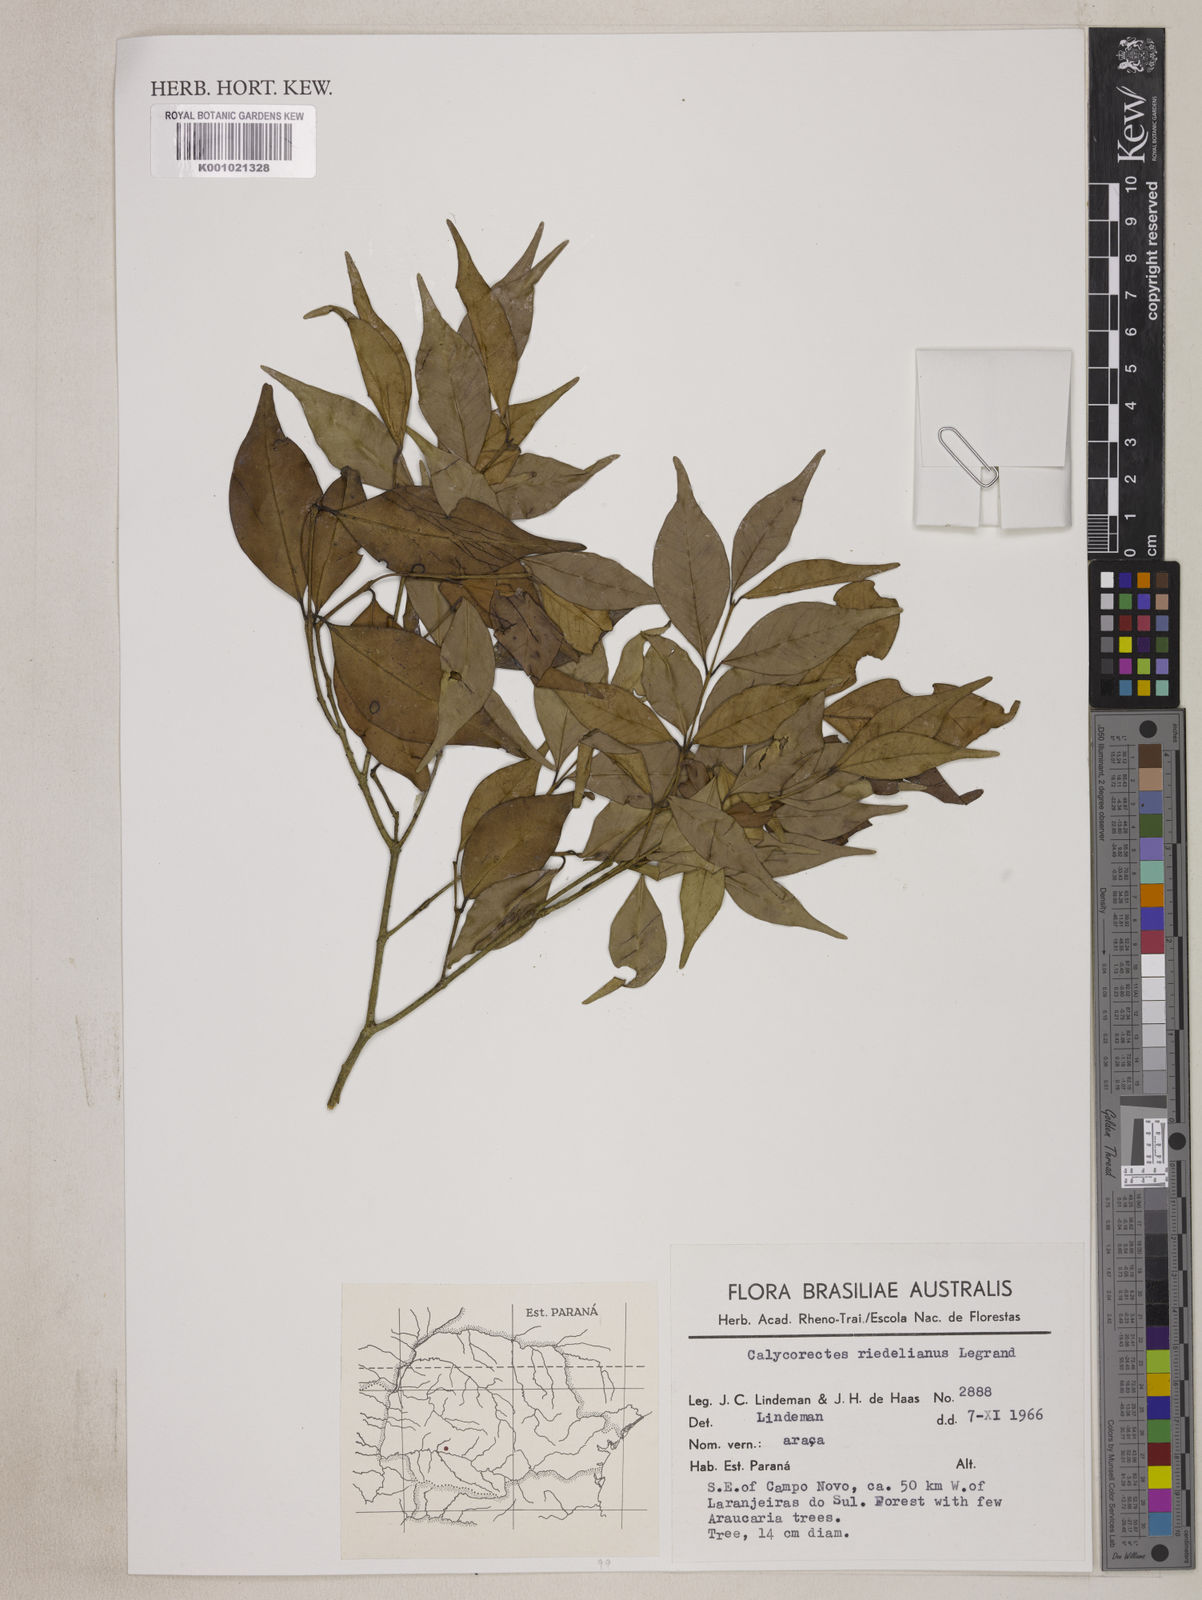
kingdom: Plantae
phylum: Tracheophyta
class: Magnoliopsida
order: Myrtales
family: Myrtaceae
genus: Eugenia
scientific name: Eugenia subterminalis
